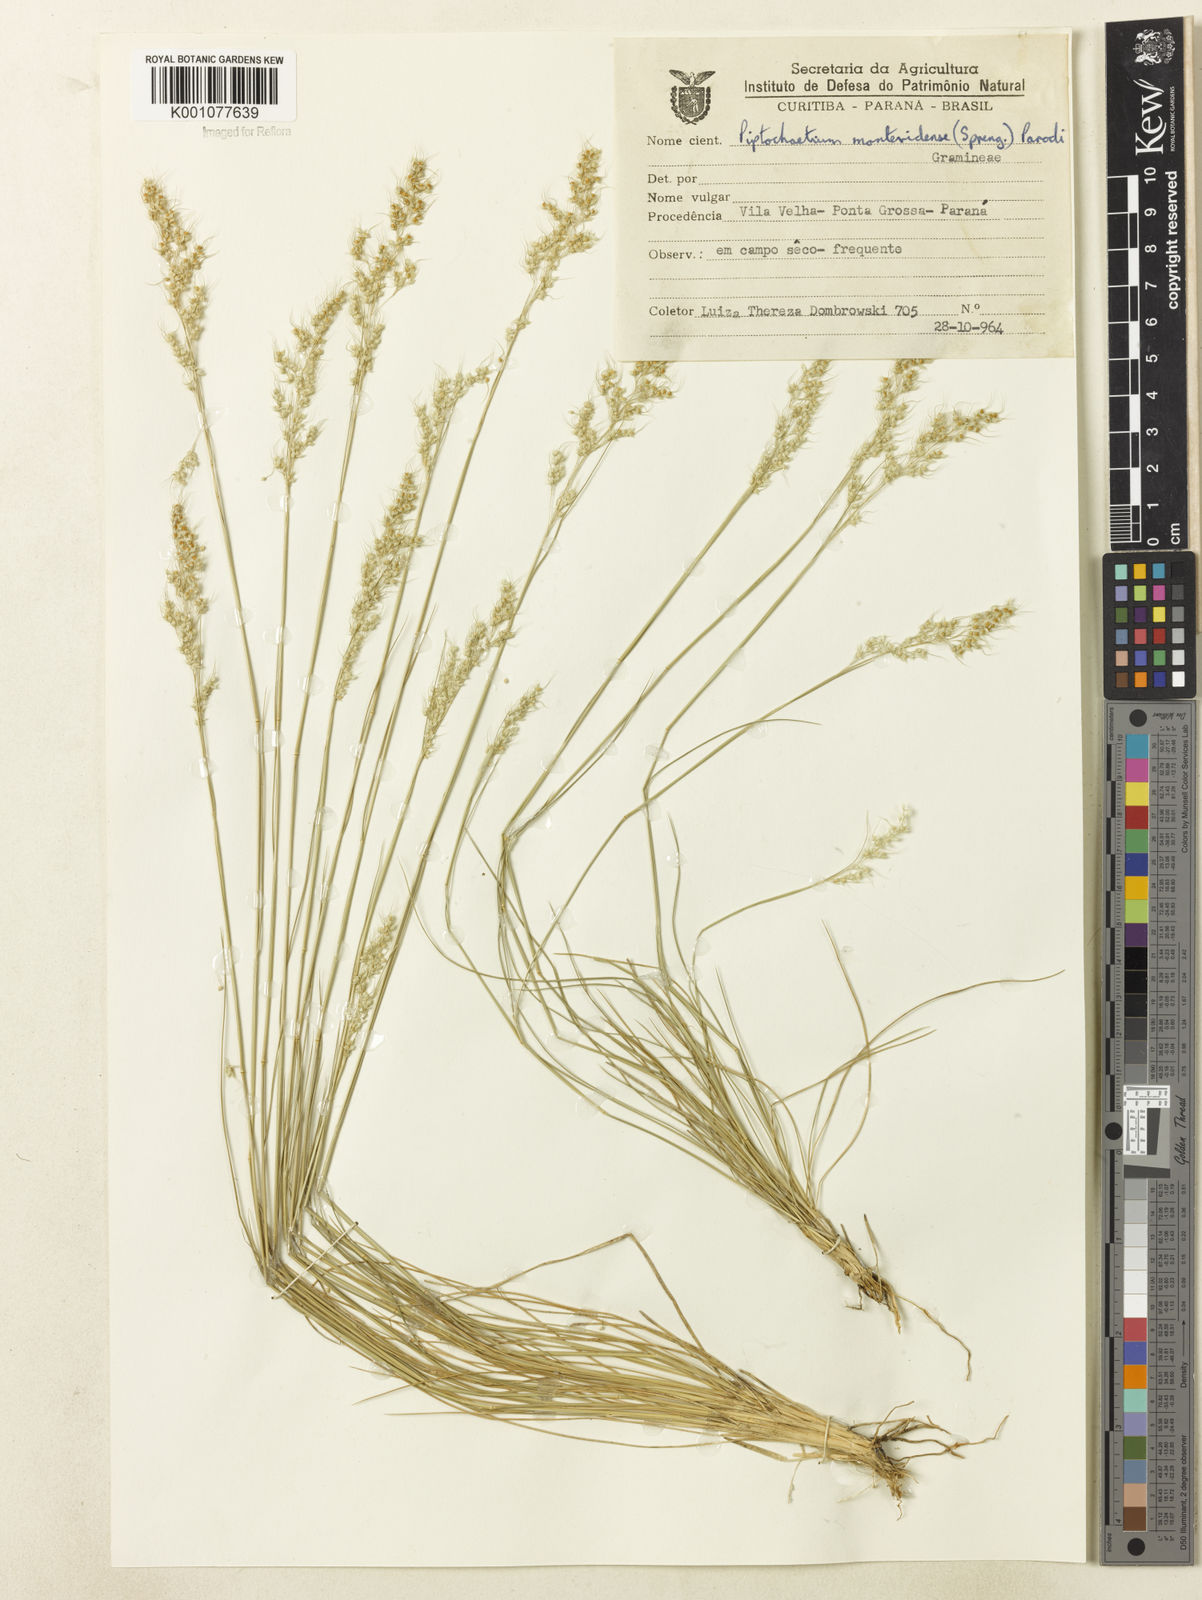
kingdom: Plantae
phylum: Tracheophyta
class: Liliopsida
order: Poales
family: Poaceae
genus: Piptochaetium
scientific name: Piptochaetium montevidense
